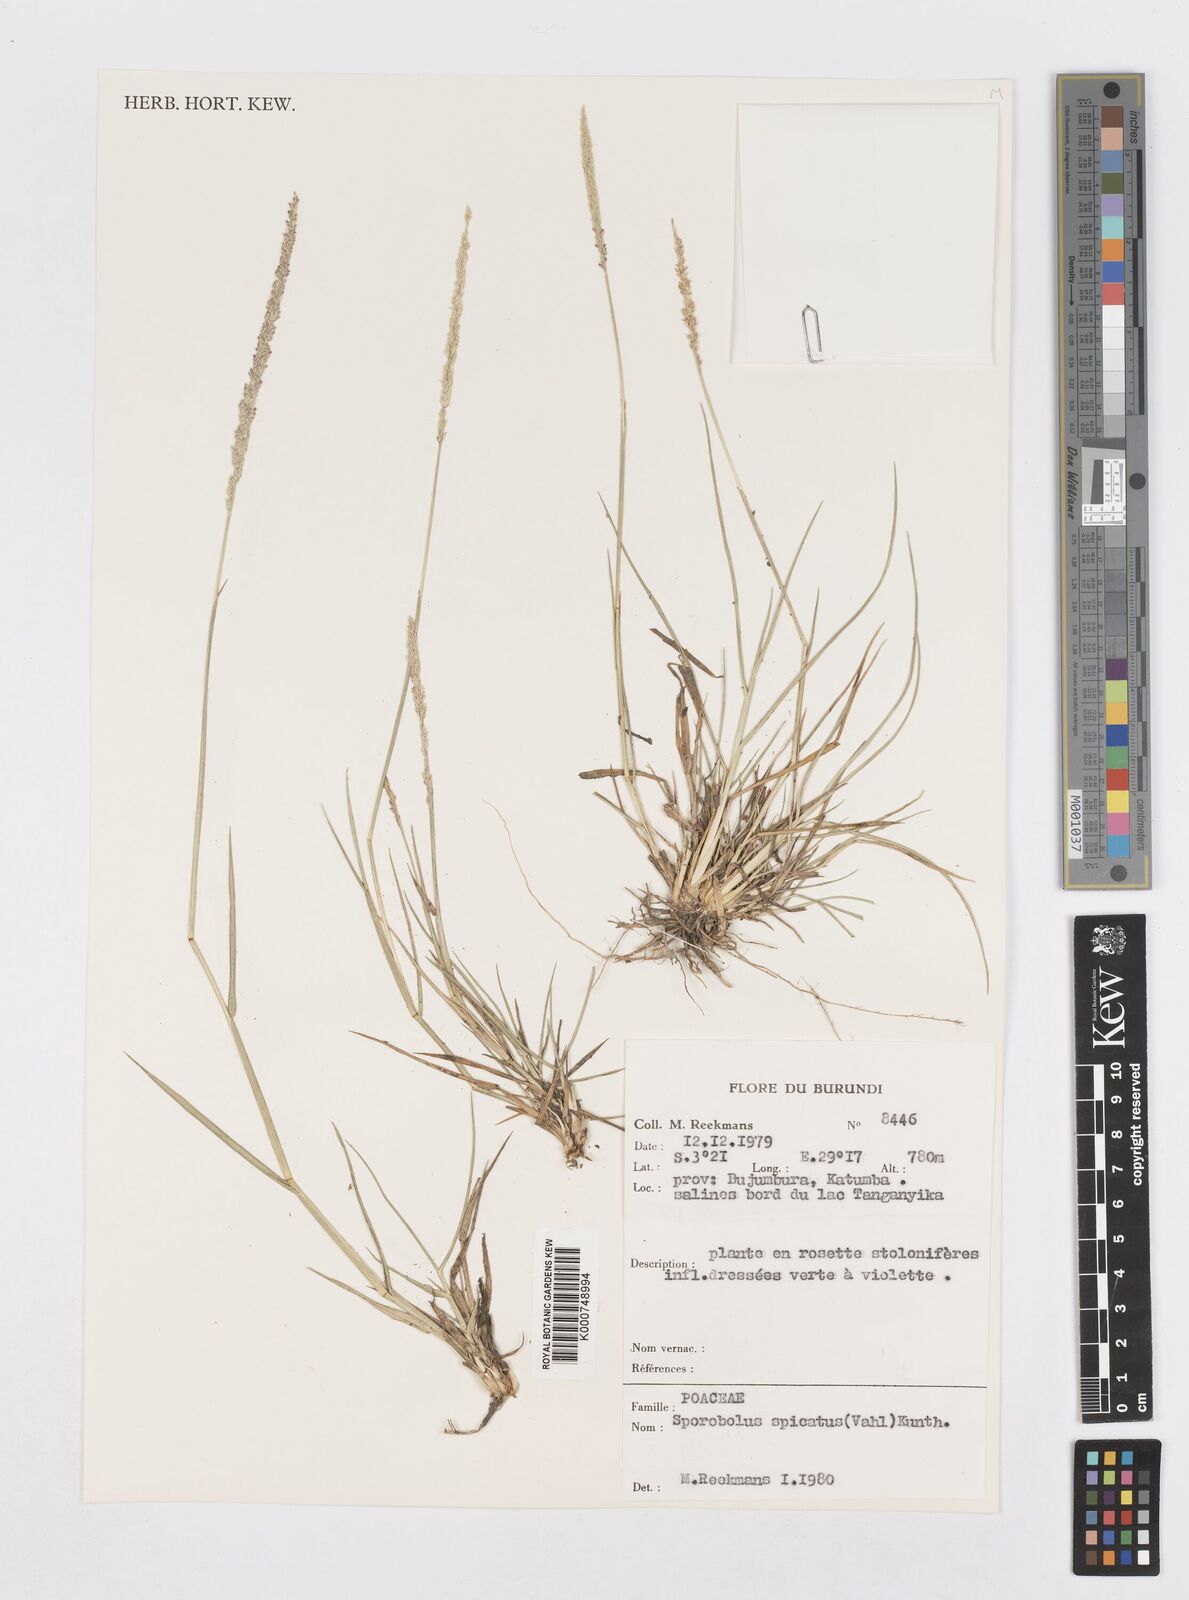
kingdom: Plantae
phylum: Tracheophyta
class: Liliopsida
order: Poales
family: Poaceae
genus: Sporobolus
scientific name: Sporobolus spicatus
